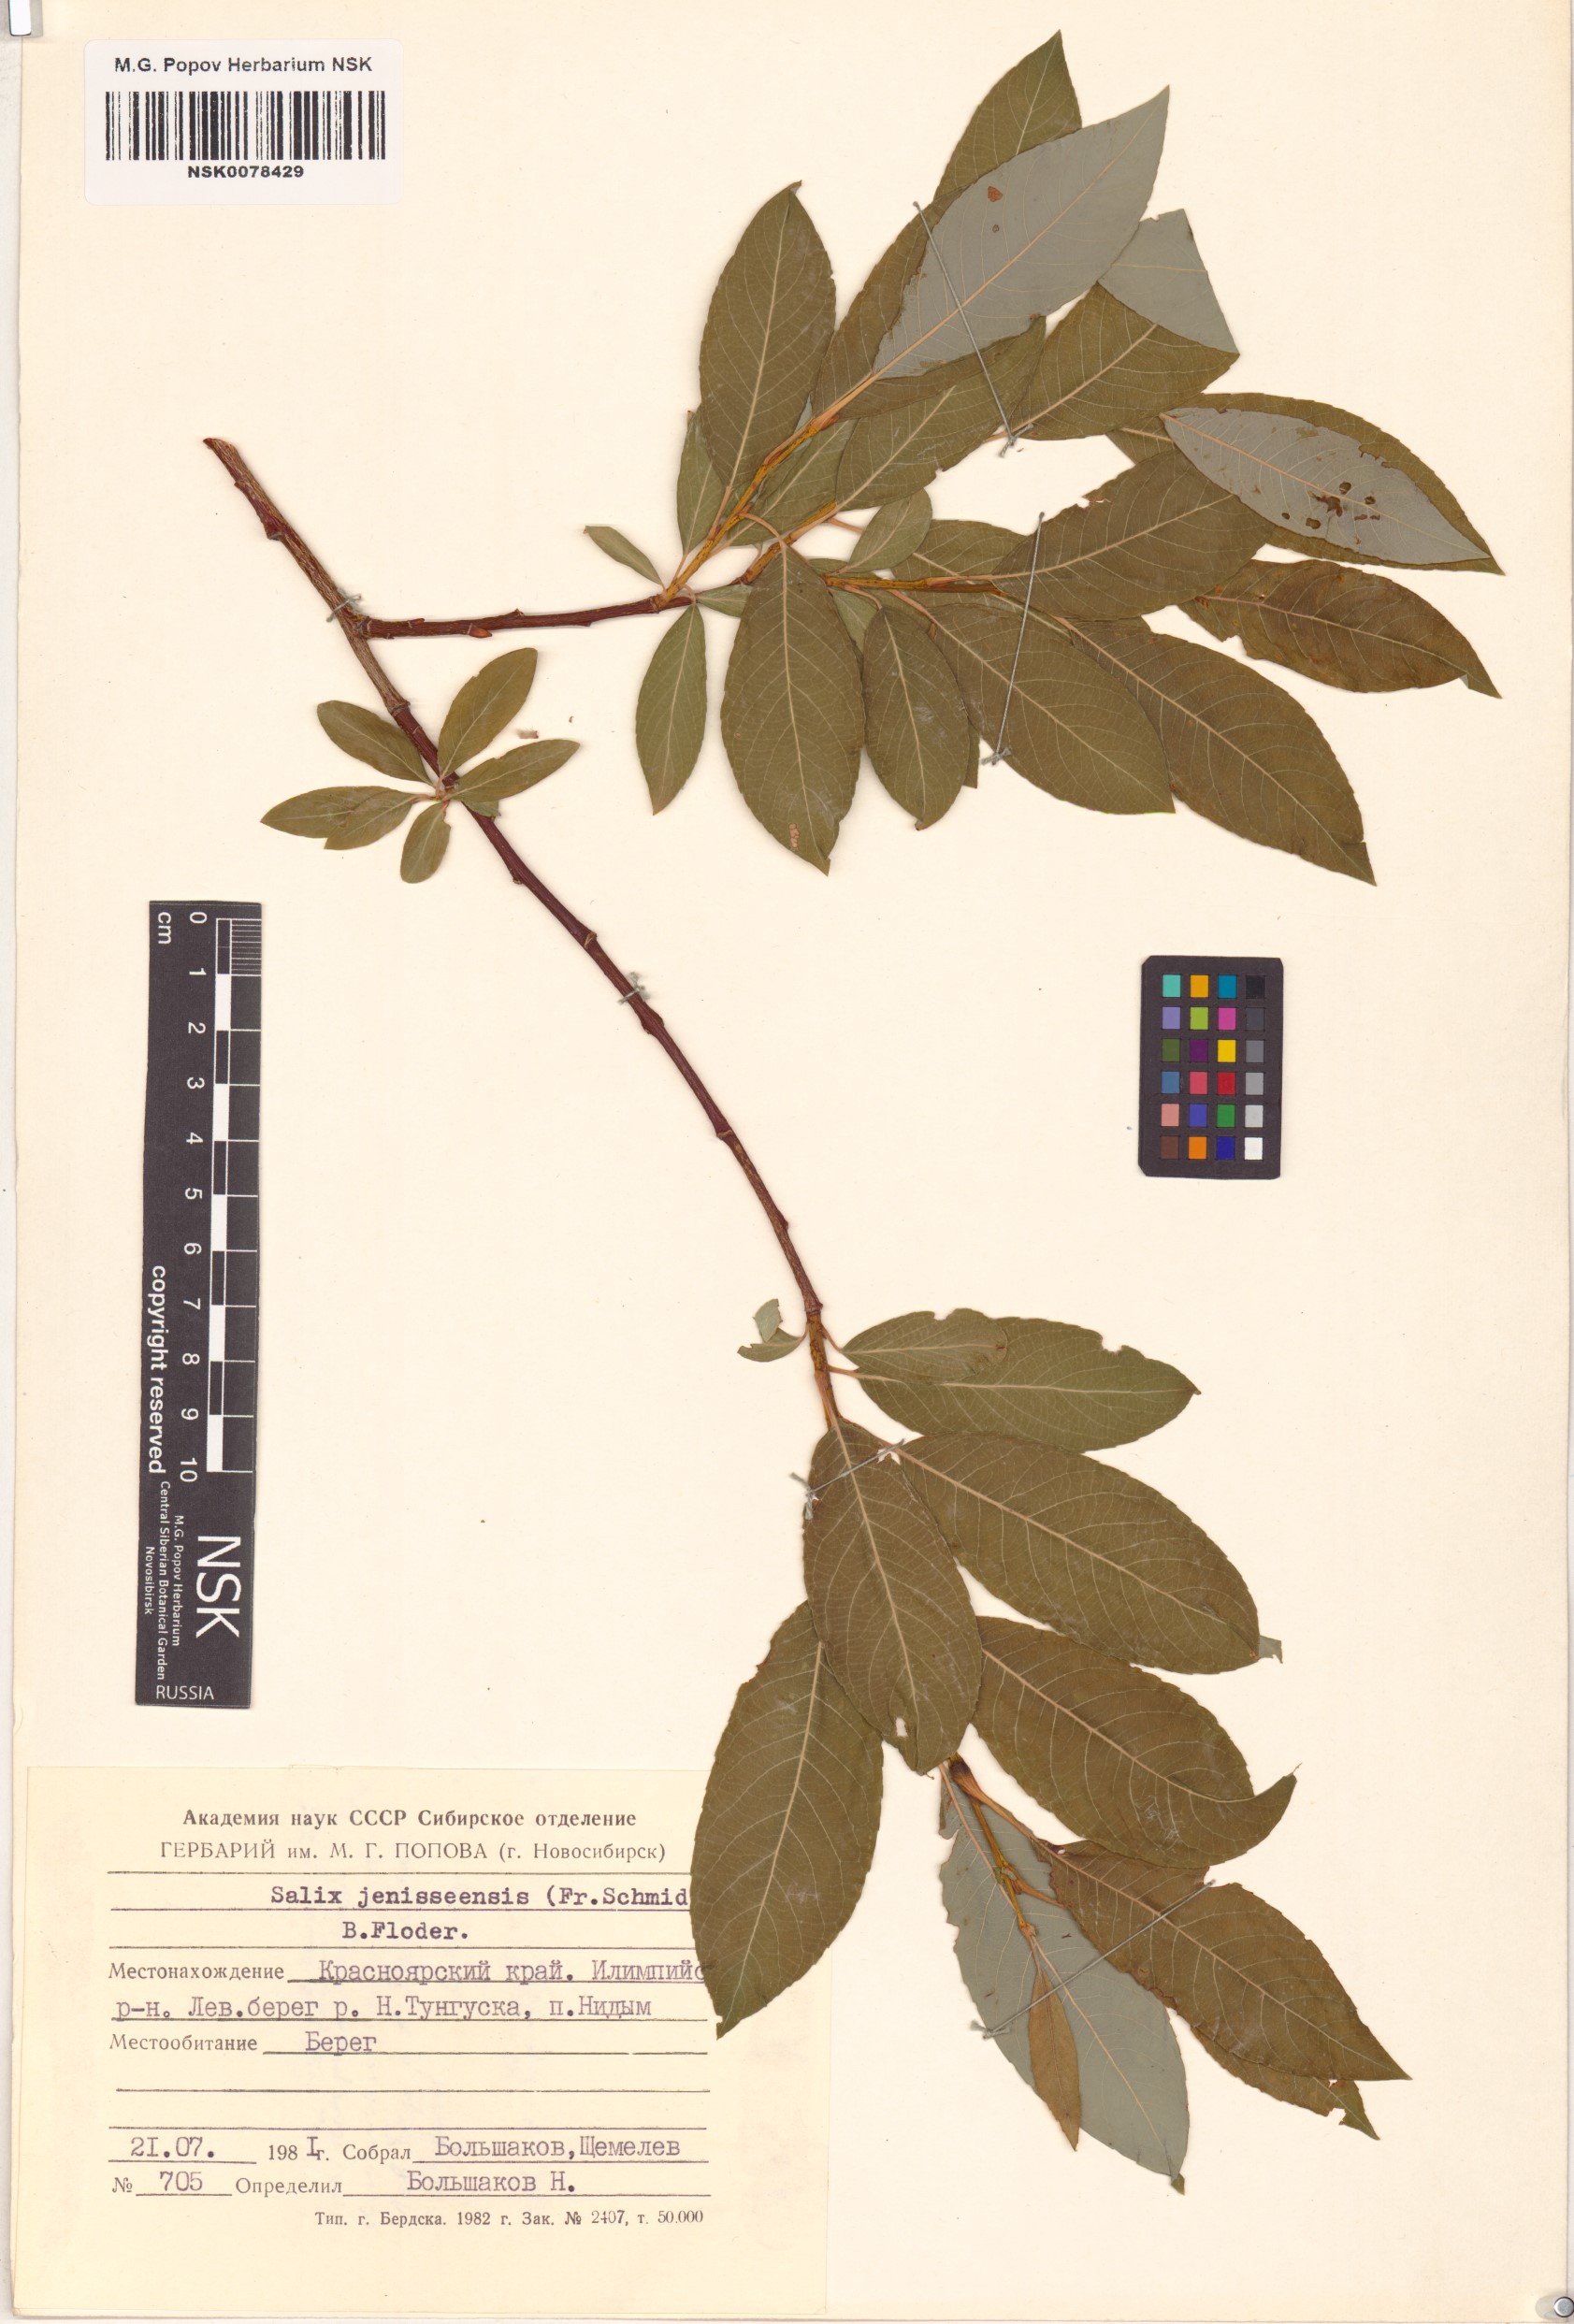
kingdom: Plantae
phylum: Tracheophyta
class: Magnoliopsida
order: Malpighiales
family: Salicaceae
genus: Salix
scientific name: Salix jenisseensis
